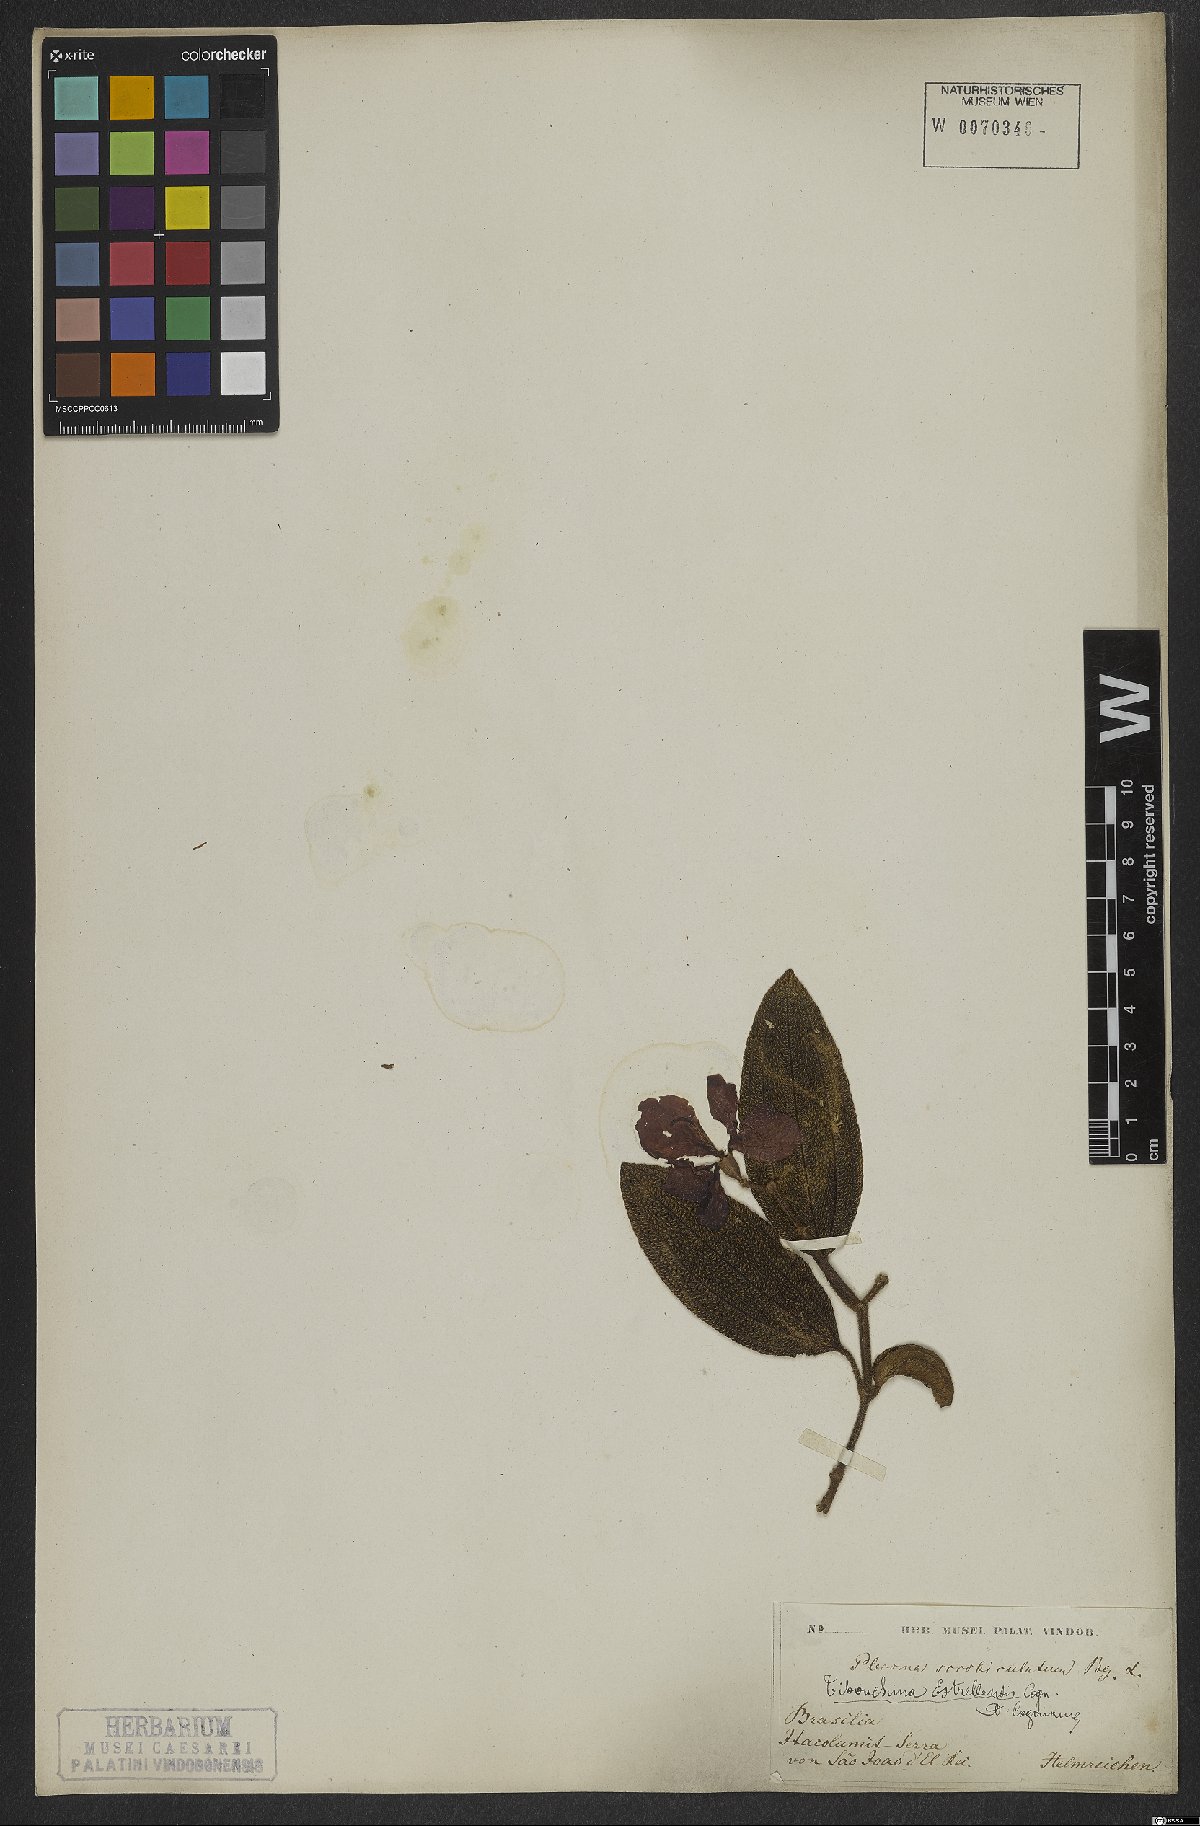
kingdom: Plantae
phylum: Tracheophyta
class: Magnoliopsida
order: Myrtales
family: Melastomataceae
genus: Pleroma
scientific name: Pleroma estrellense
